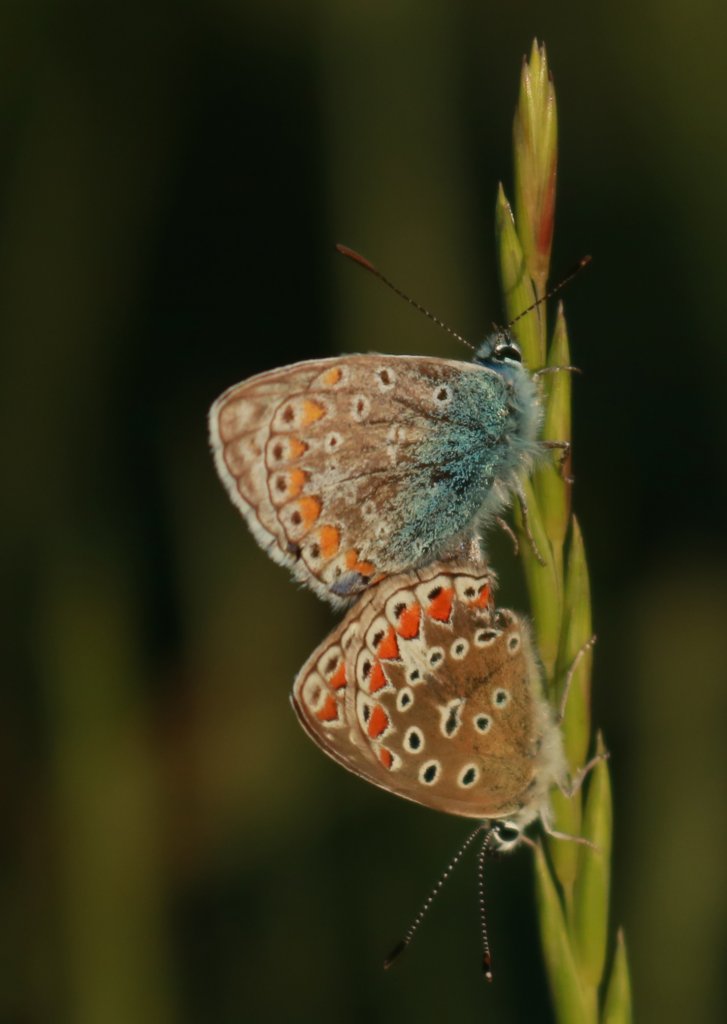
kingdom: Animalia
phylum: Arthropoda
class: Insecta
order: Lepidoptera
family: Lycaenidae
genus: Polyommatus
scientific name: Polyommatus icarus
